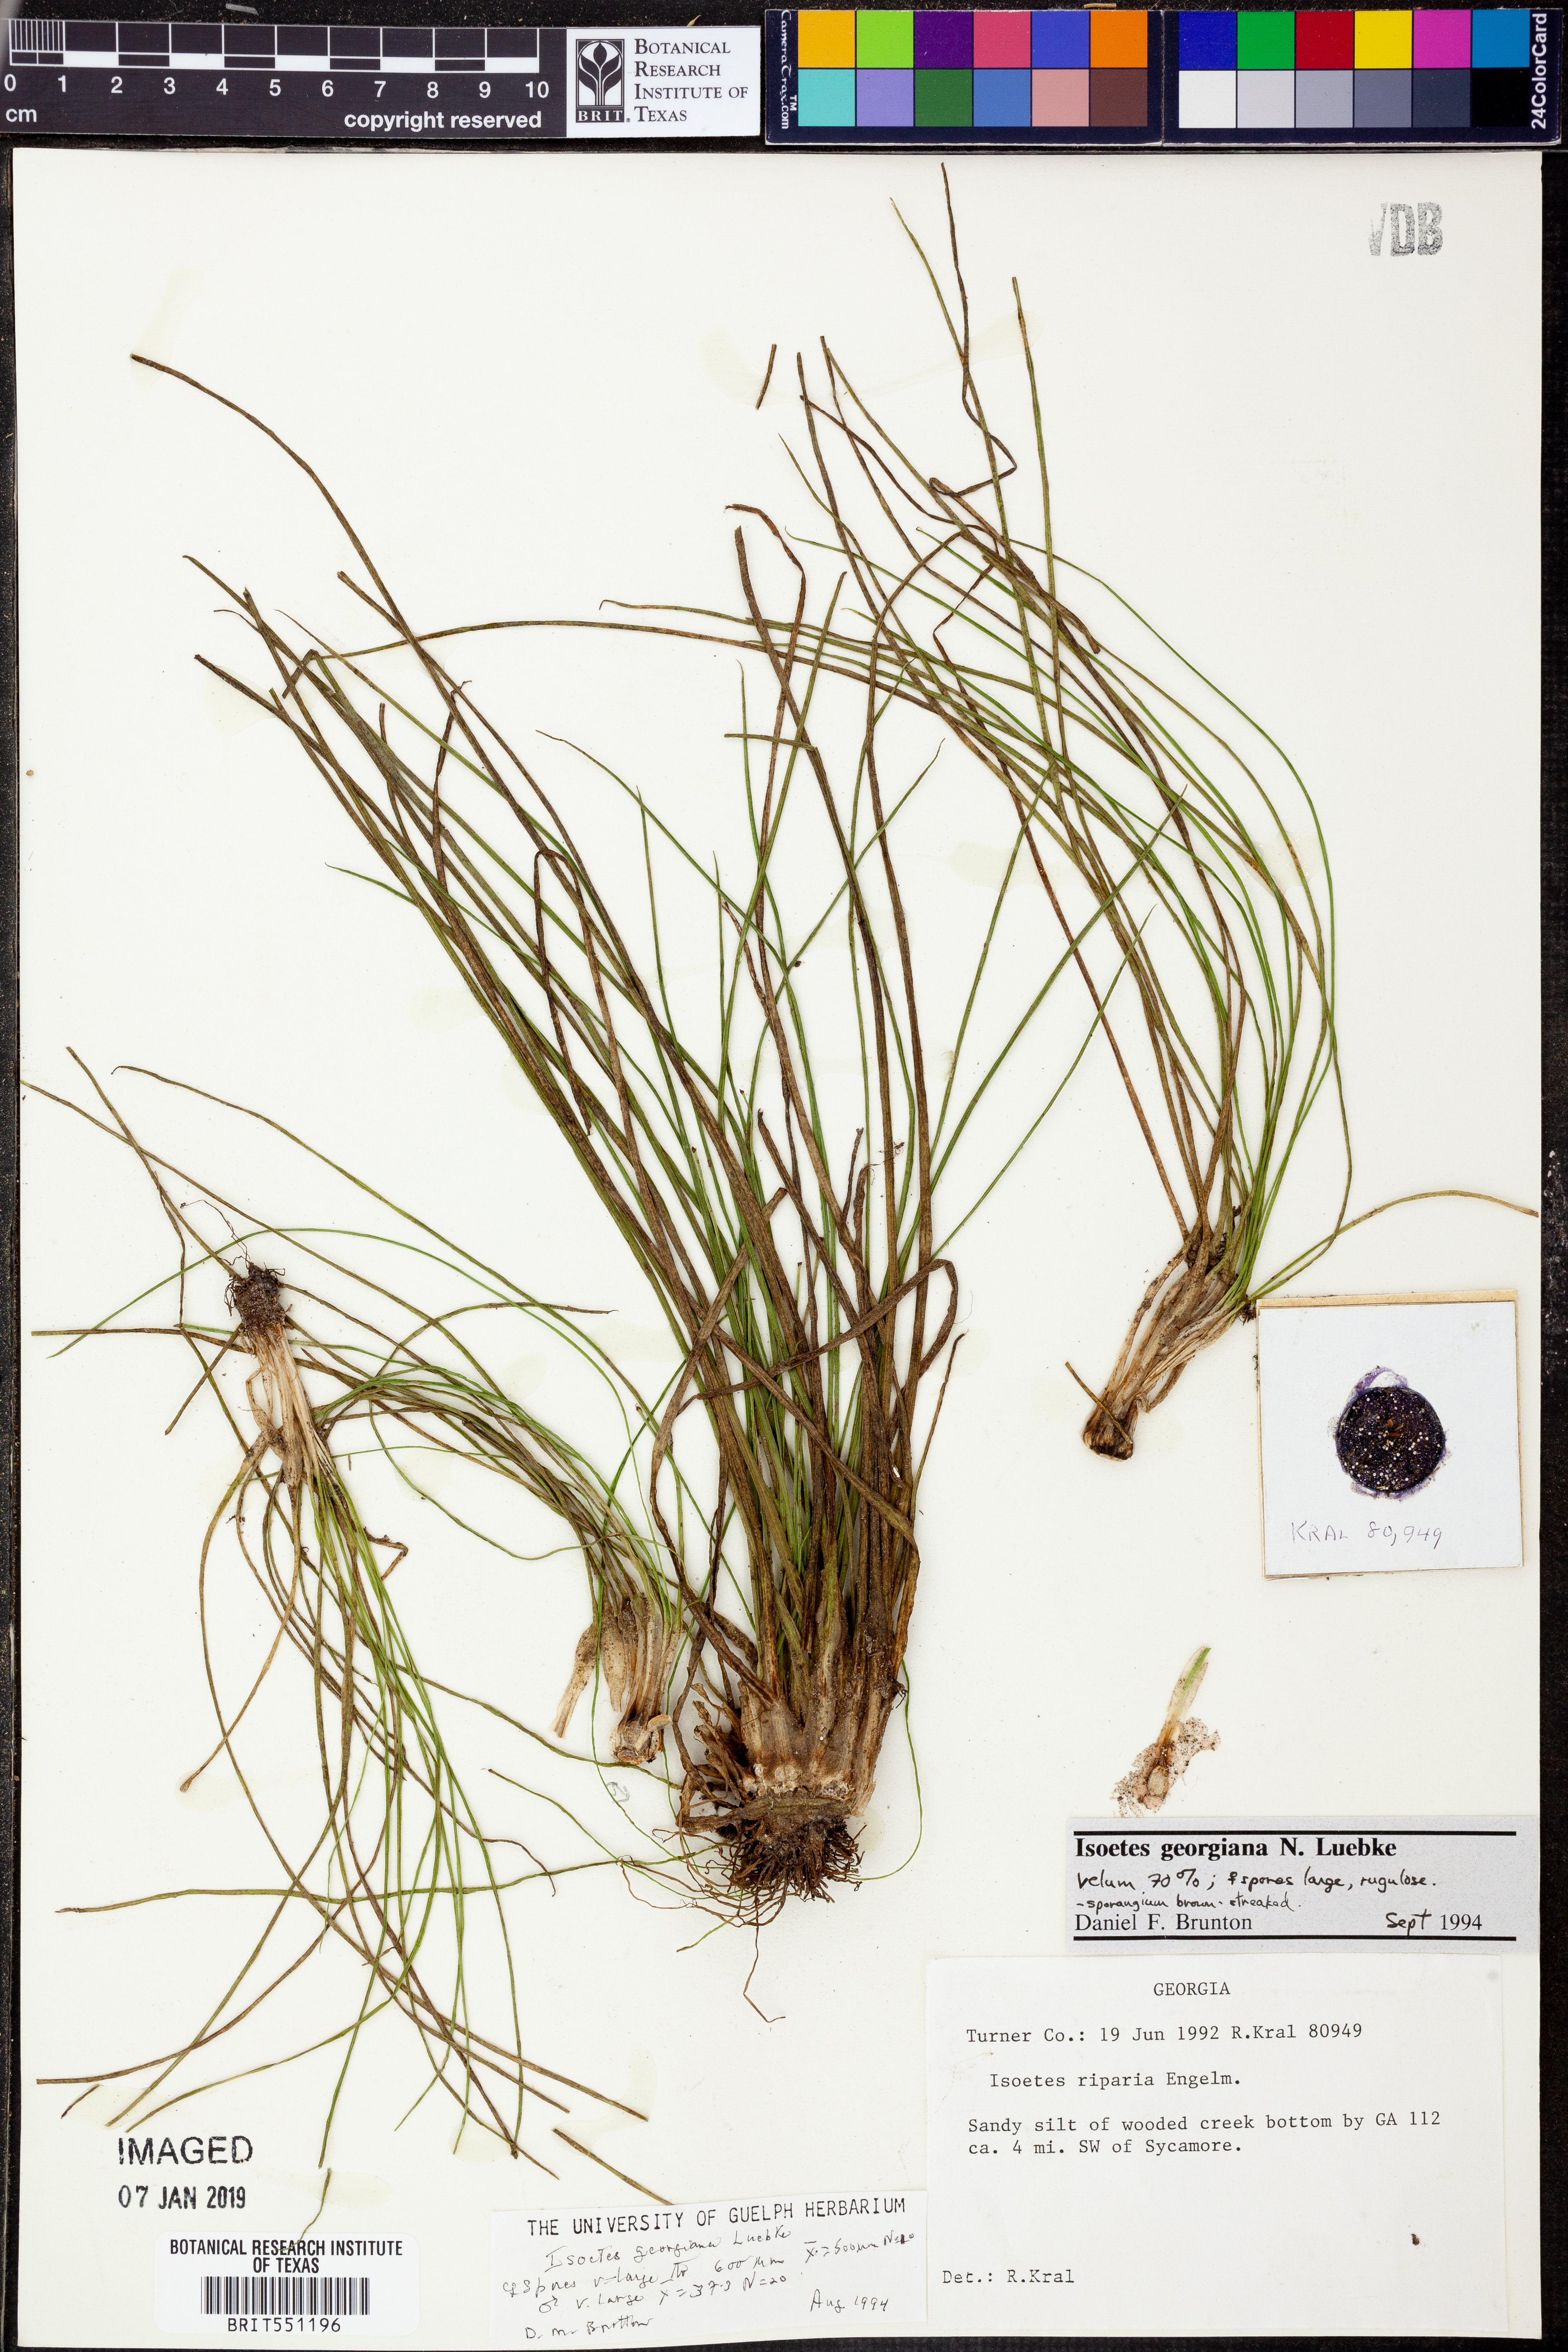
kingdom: Plantae
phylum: Tracheophyta
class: Lycopodiopsida
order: Isoetales
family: Isoetaceae
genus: Isoetes
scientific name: Isoetes georgiana
